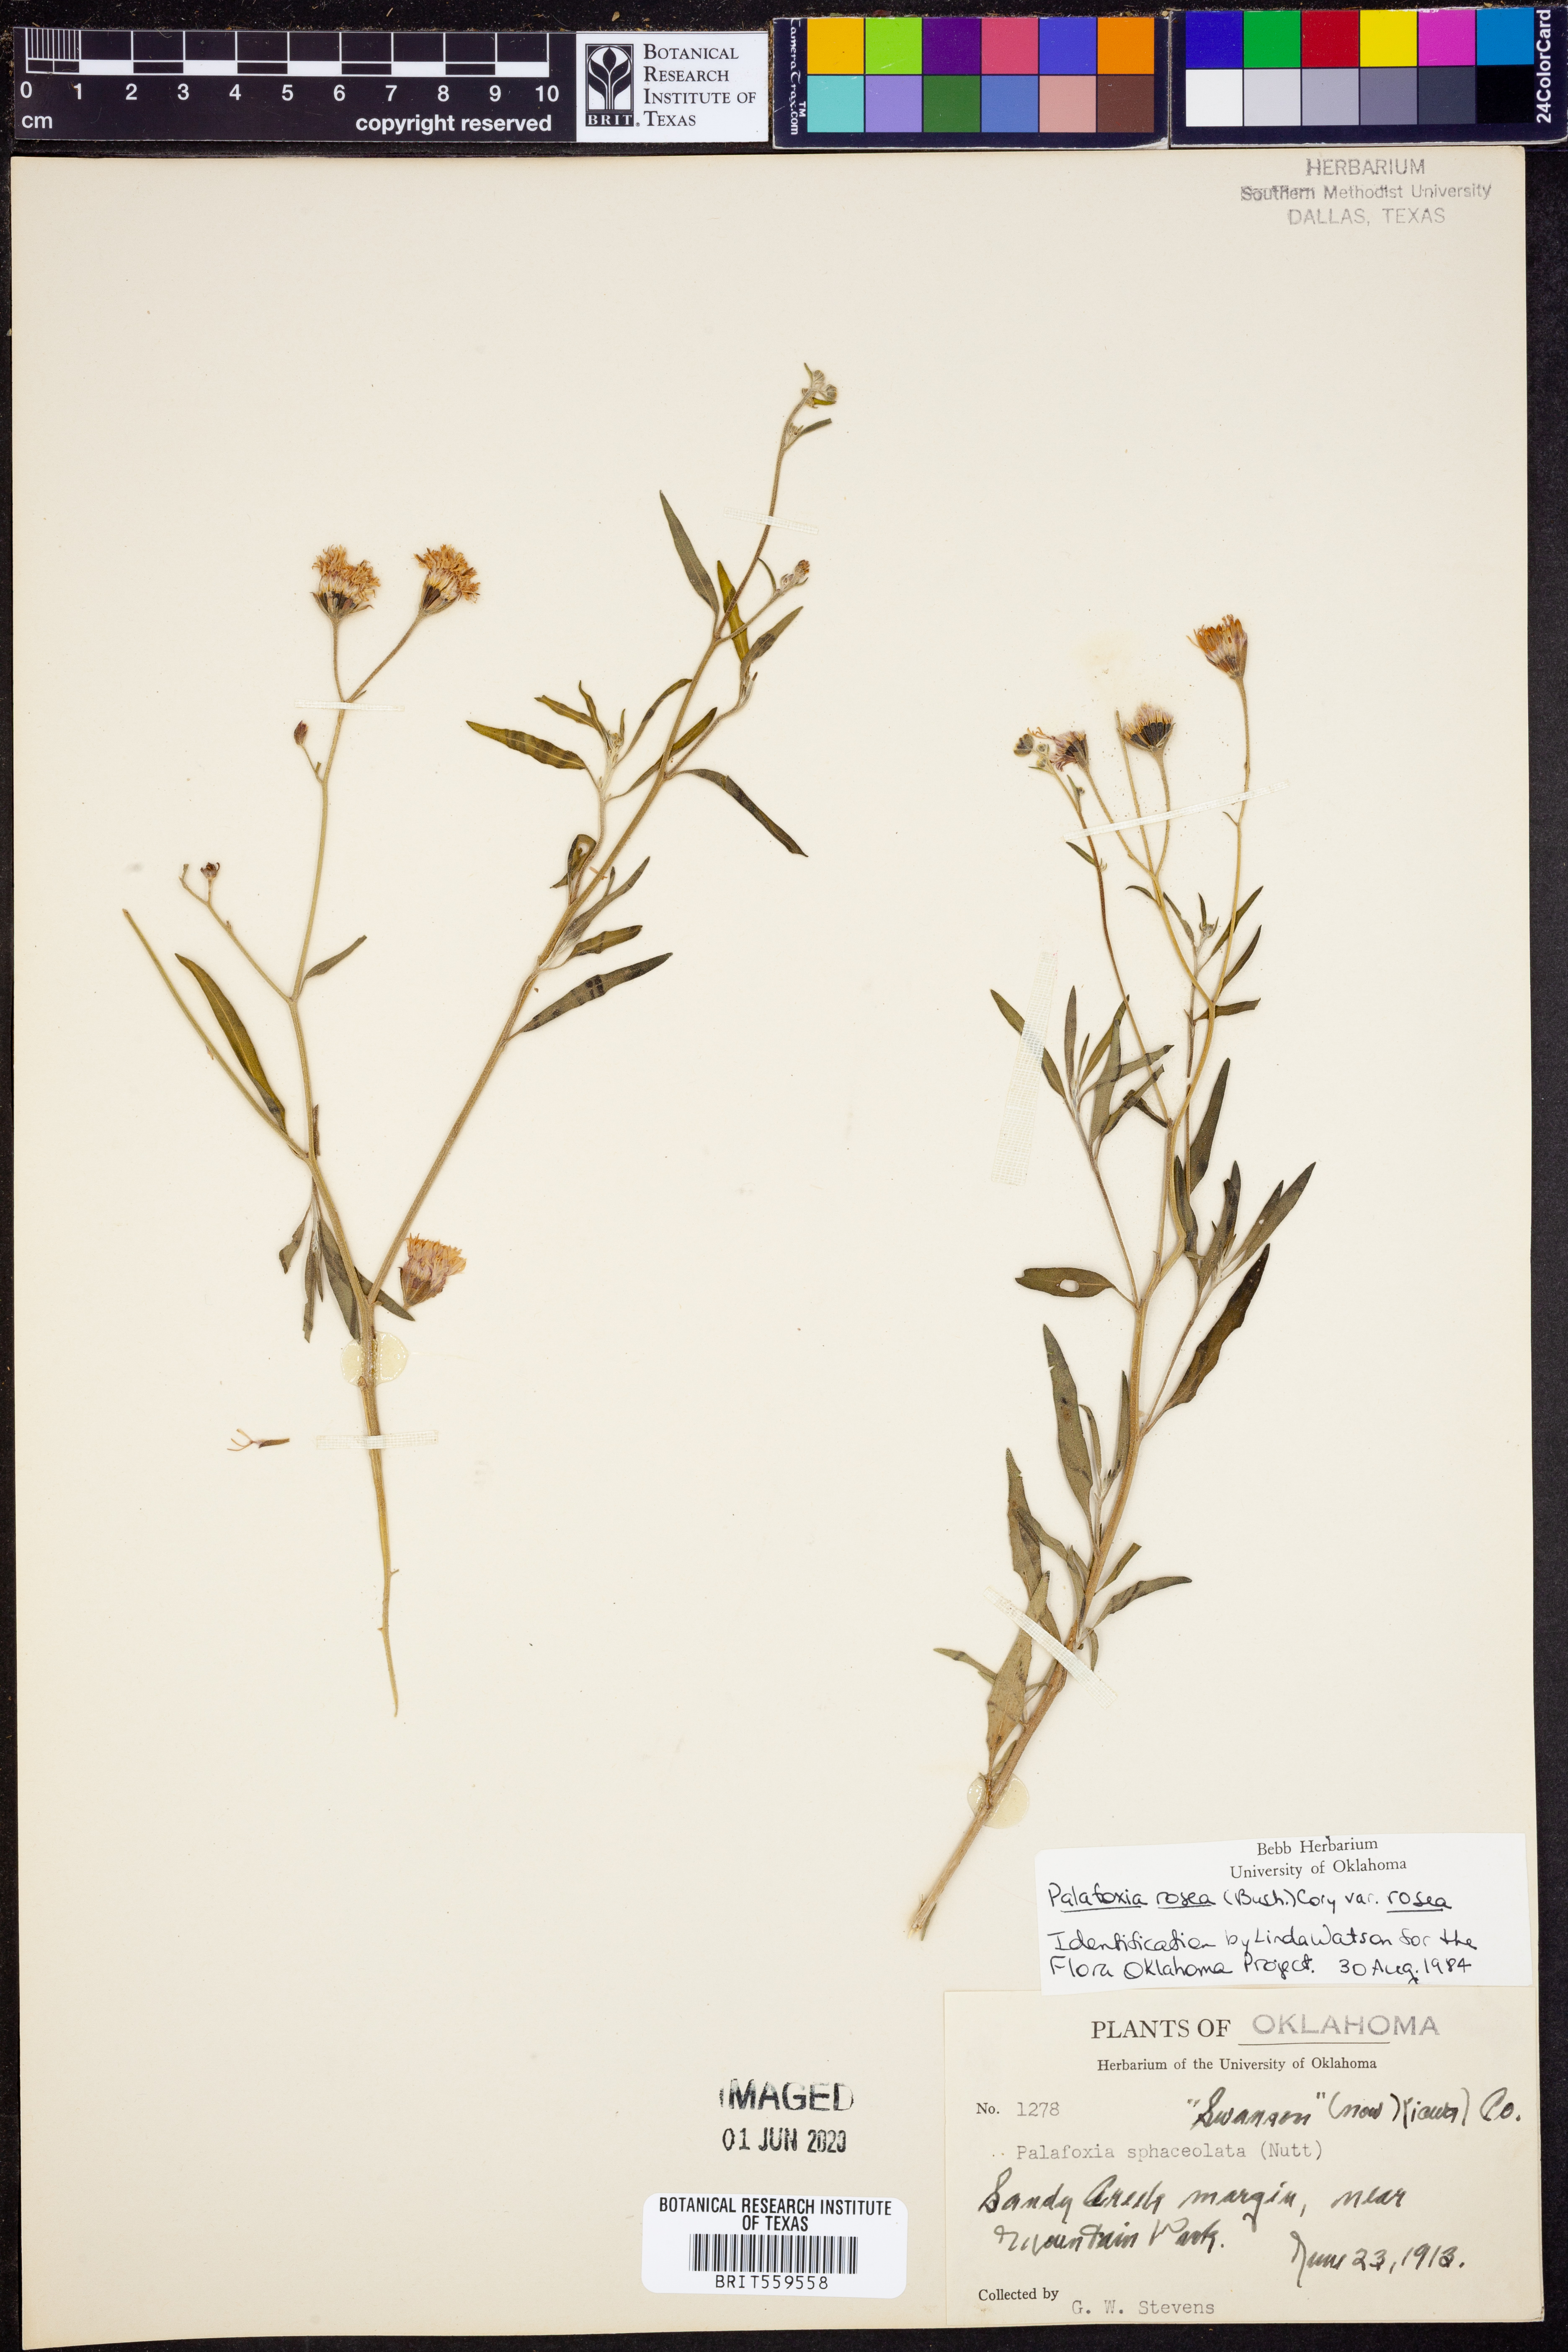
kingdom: Plantae
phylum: Tracheophyta
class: Magnoliopsida
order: Asterales
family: Asteraceae
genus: Palafoxia
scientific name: Palafoxia rosea
